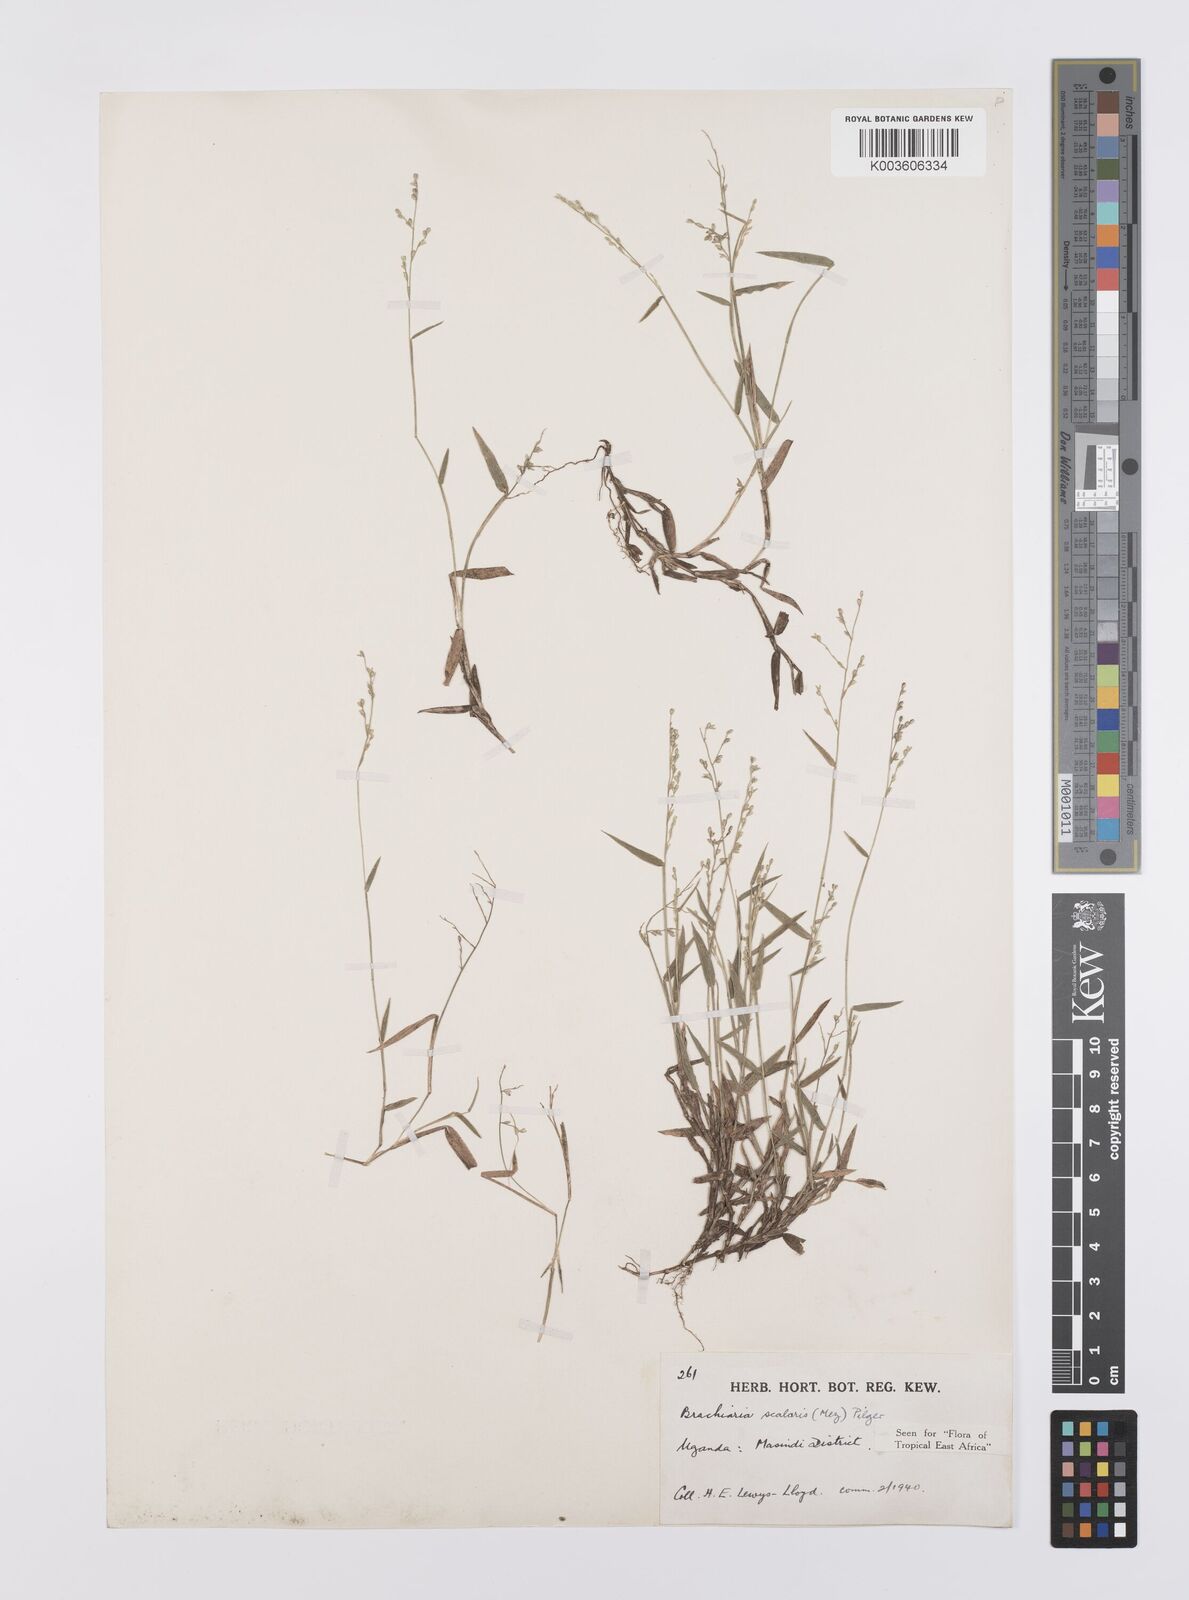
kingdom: Plantae
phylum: Tracheophyta
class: Liliopsida
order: Poales
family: Poaceae
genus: Urochloa
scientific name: Urochloa comata
